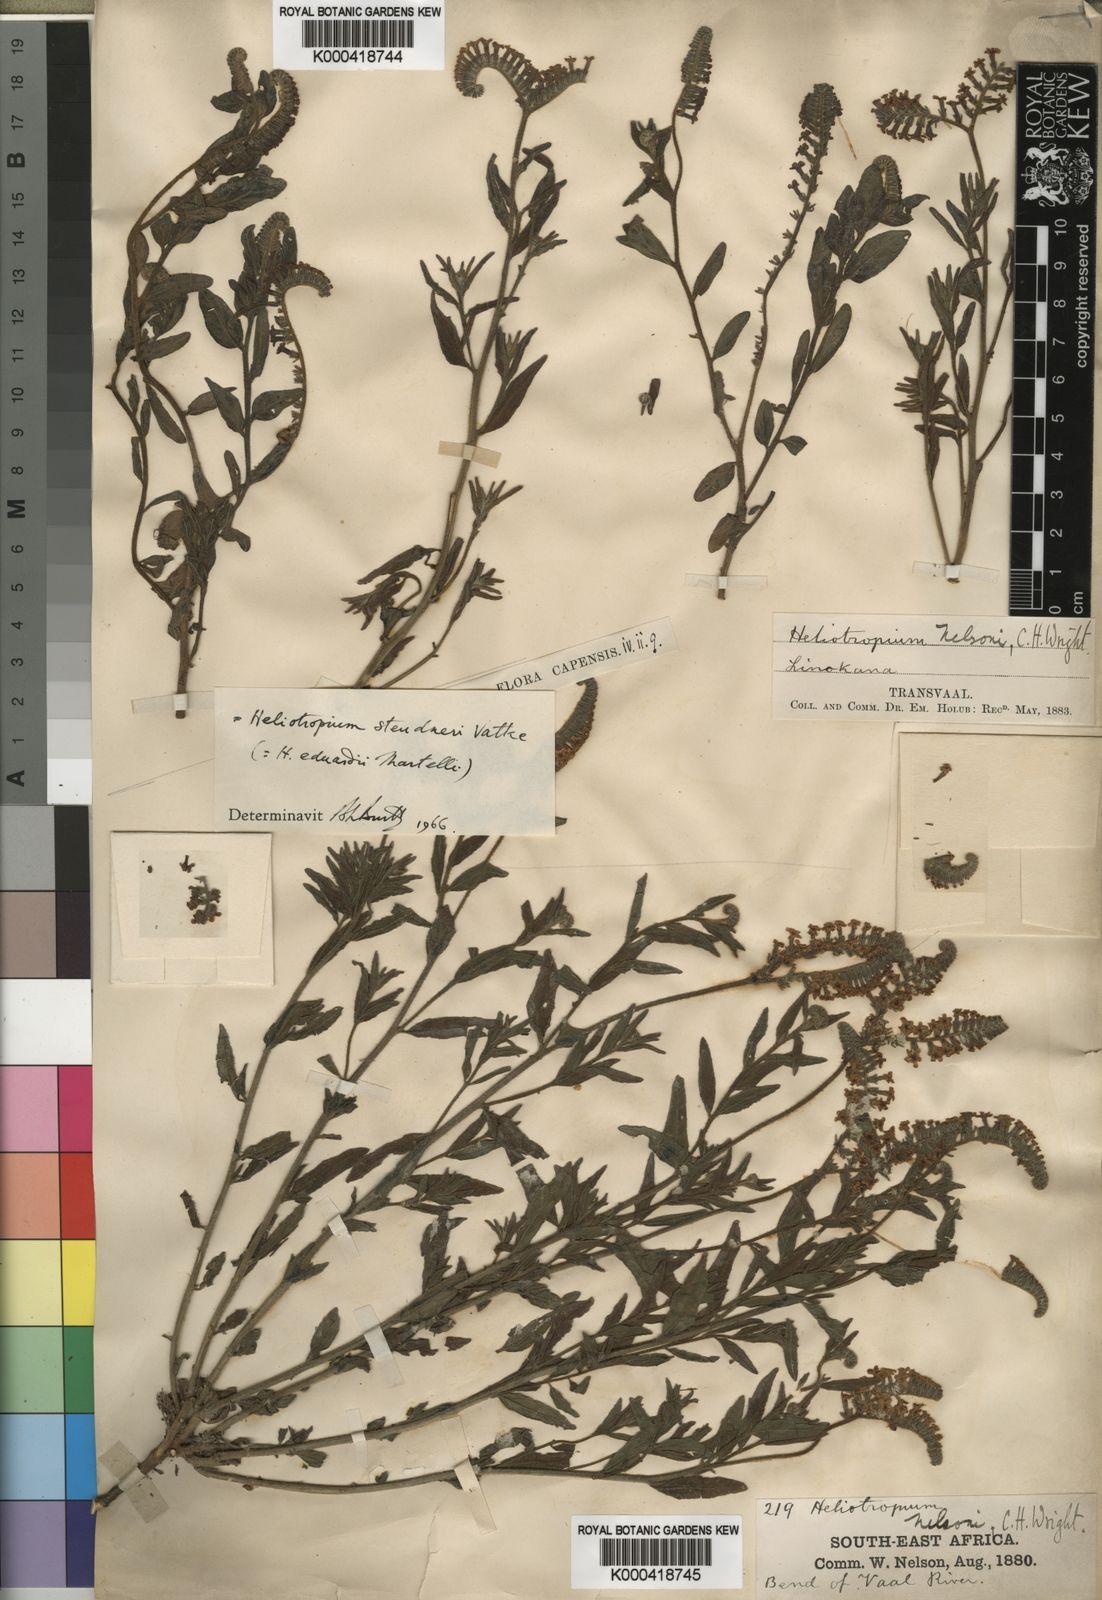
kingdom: Plantae
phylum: Tracheophyta
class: Magnoliopsida
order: Boraginales
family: Heliotropiaceae
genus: Heliotropium
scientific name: Heliotropium steudneri
